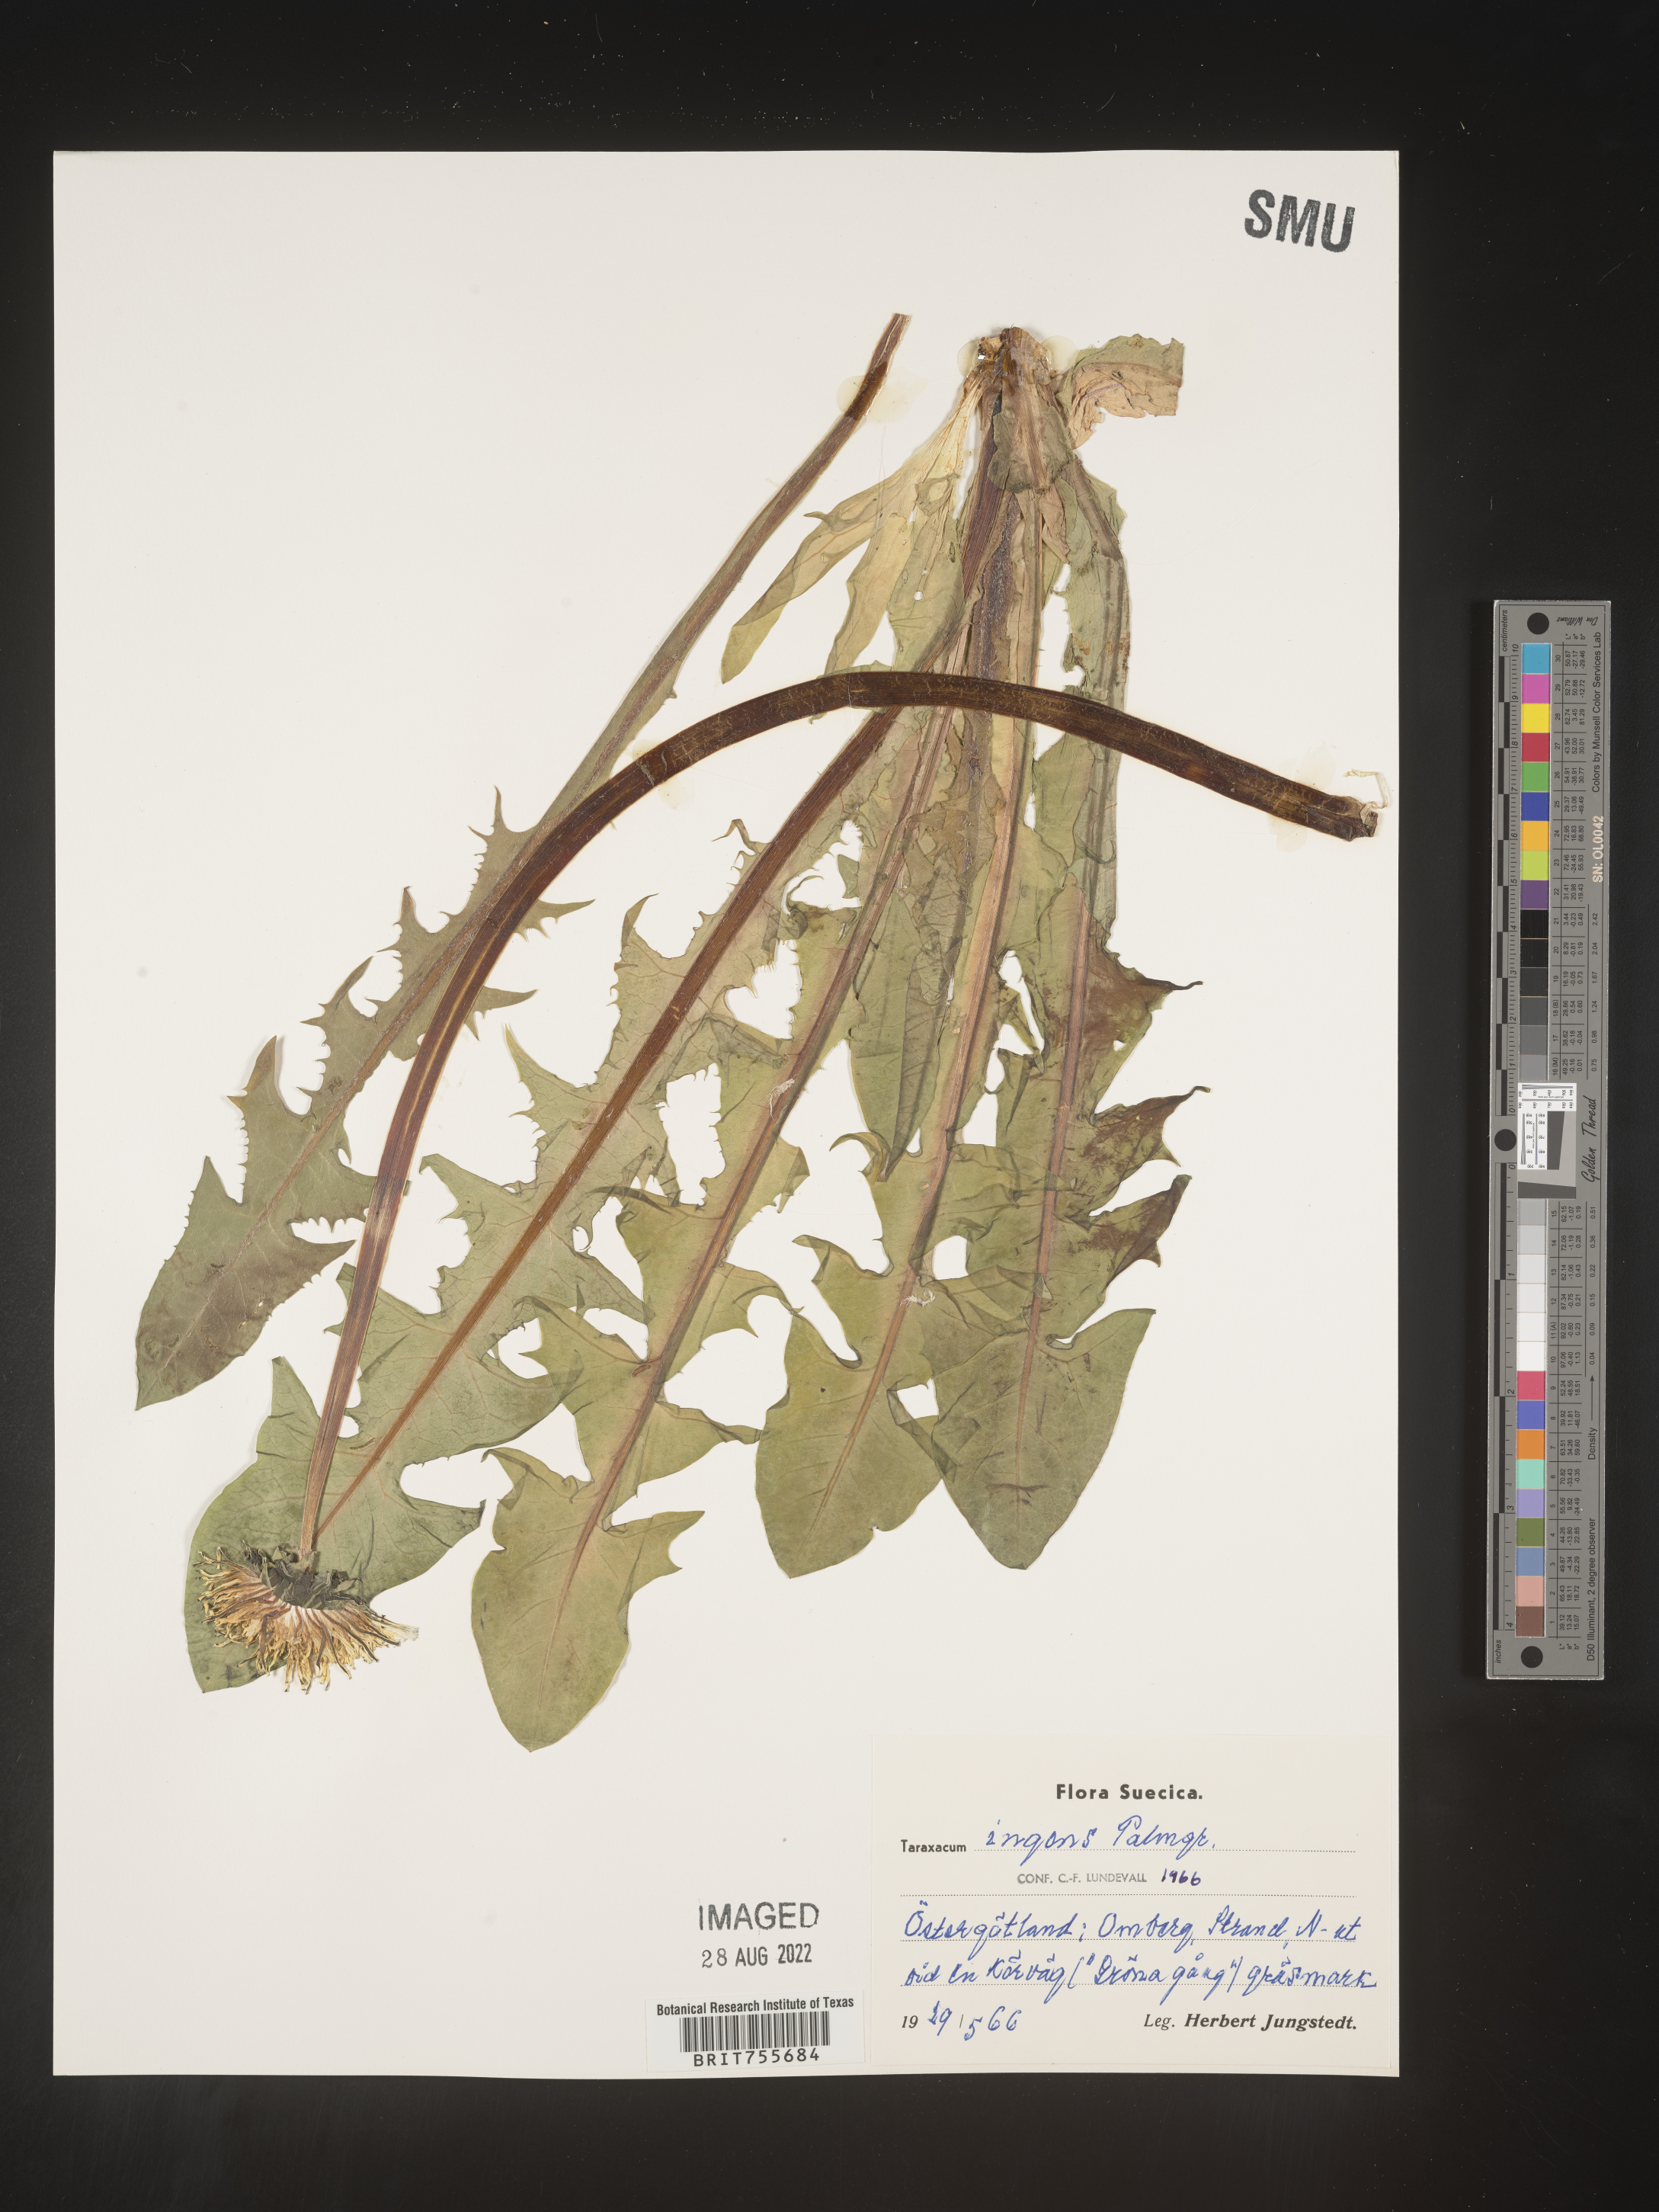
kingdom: Plantae
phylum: Tracheophyta
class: Magnoliopsida
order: Asterales
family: Asteraceae
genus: Taraxacum
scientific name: Taraxacum
